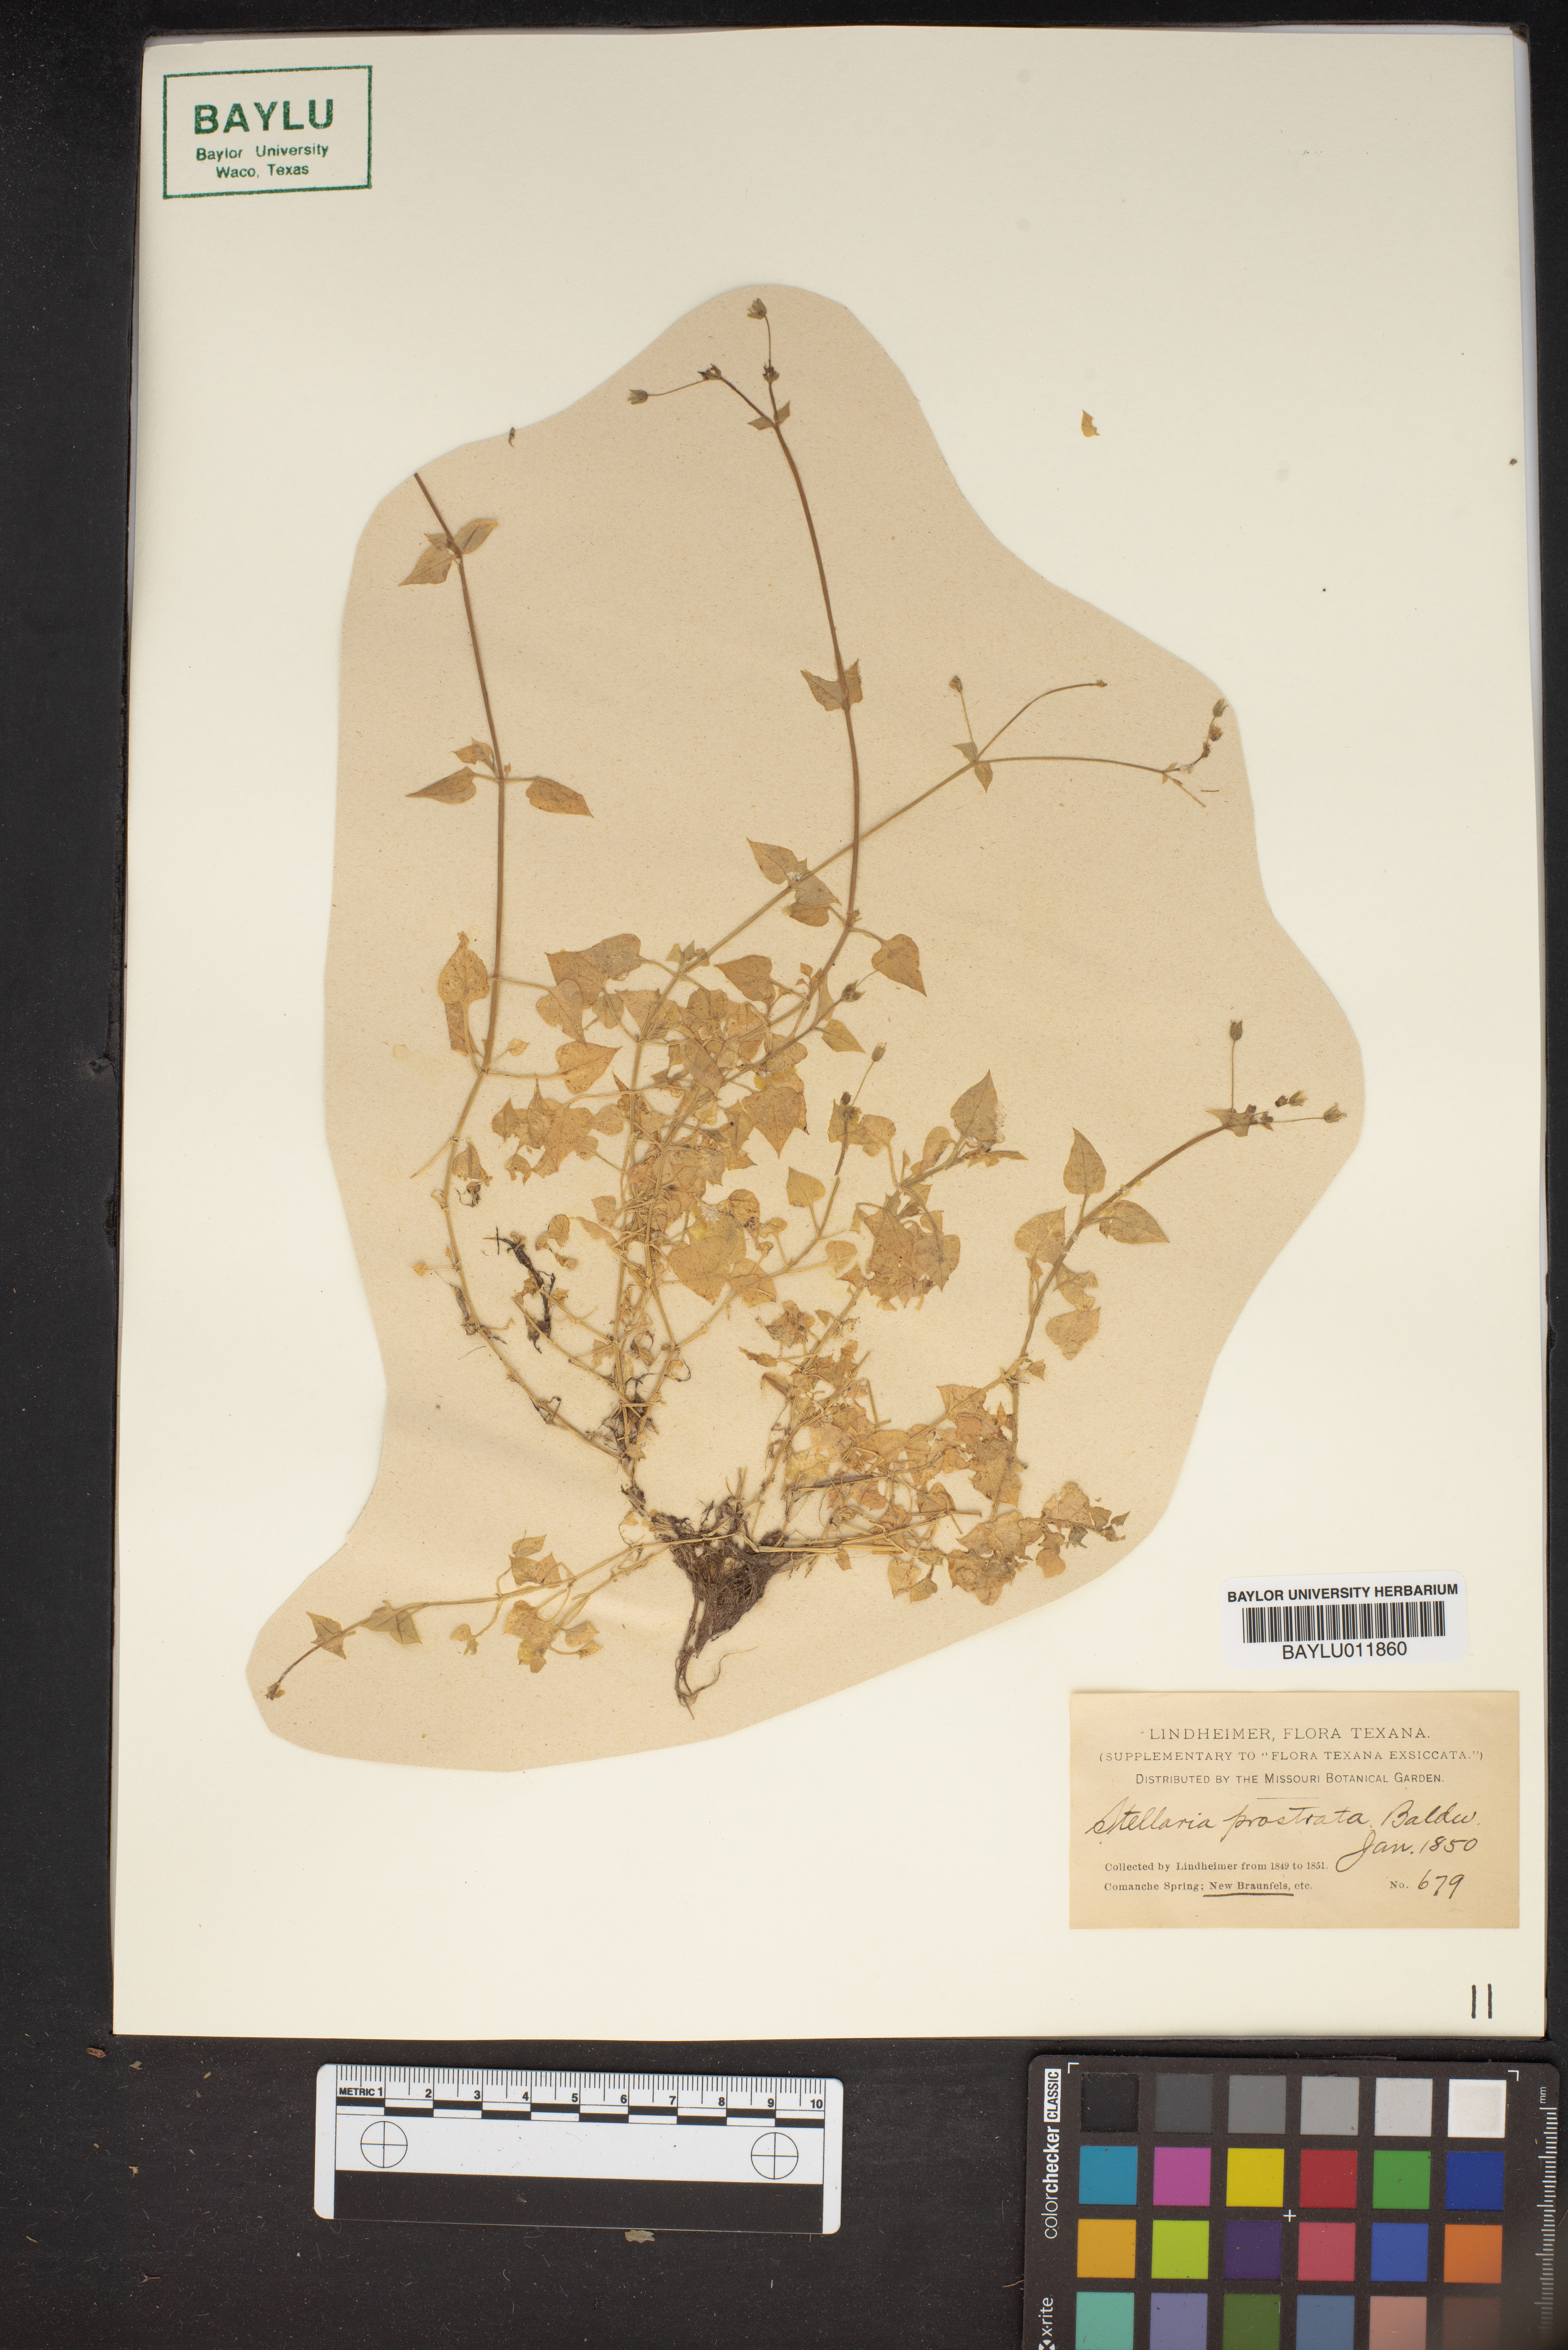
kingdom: Plantae
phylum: Tracheophyta
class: Magnoliopsida
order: Caryophyllales
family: Caryophyllaceae
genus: Stellaria
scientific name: Stellaria cuspidata
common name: Mexican chickweed
